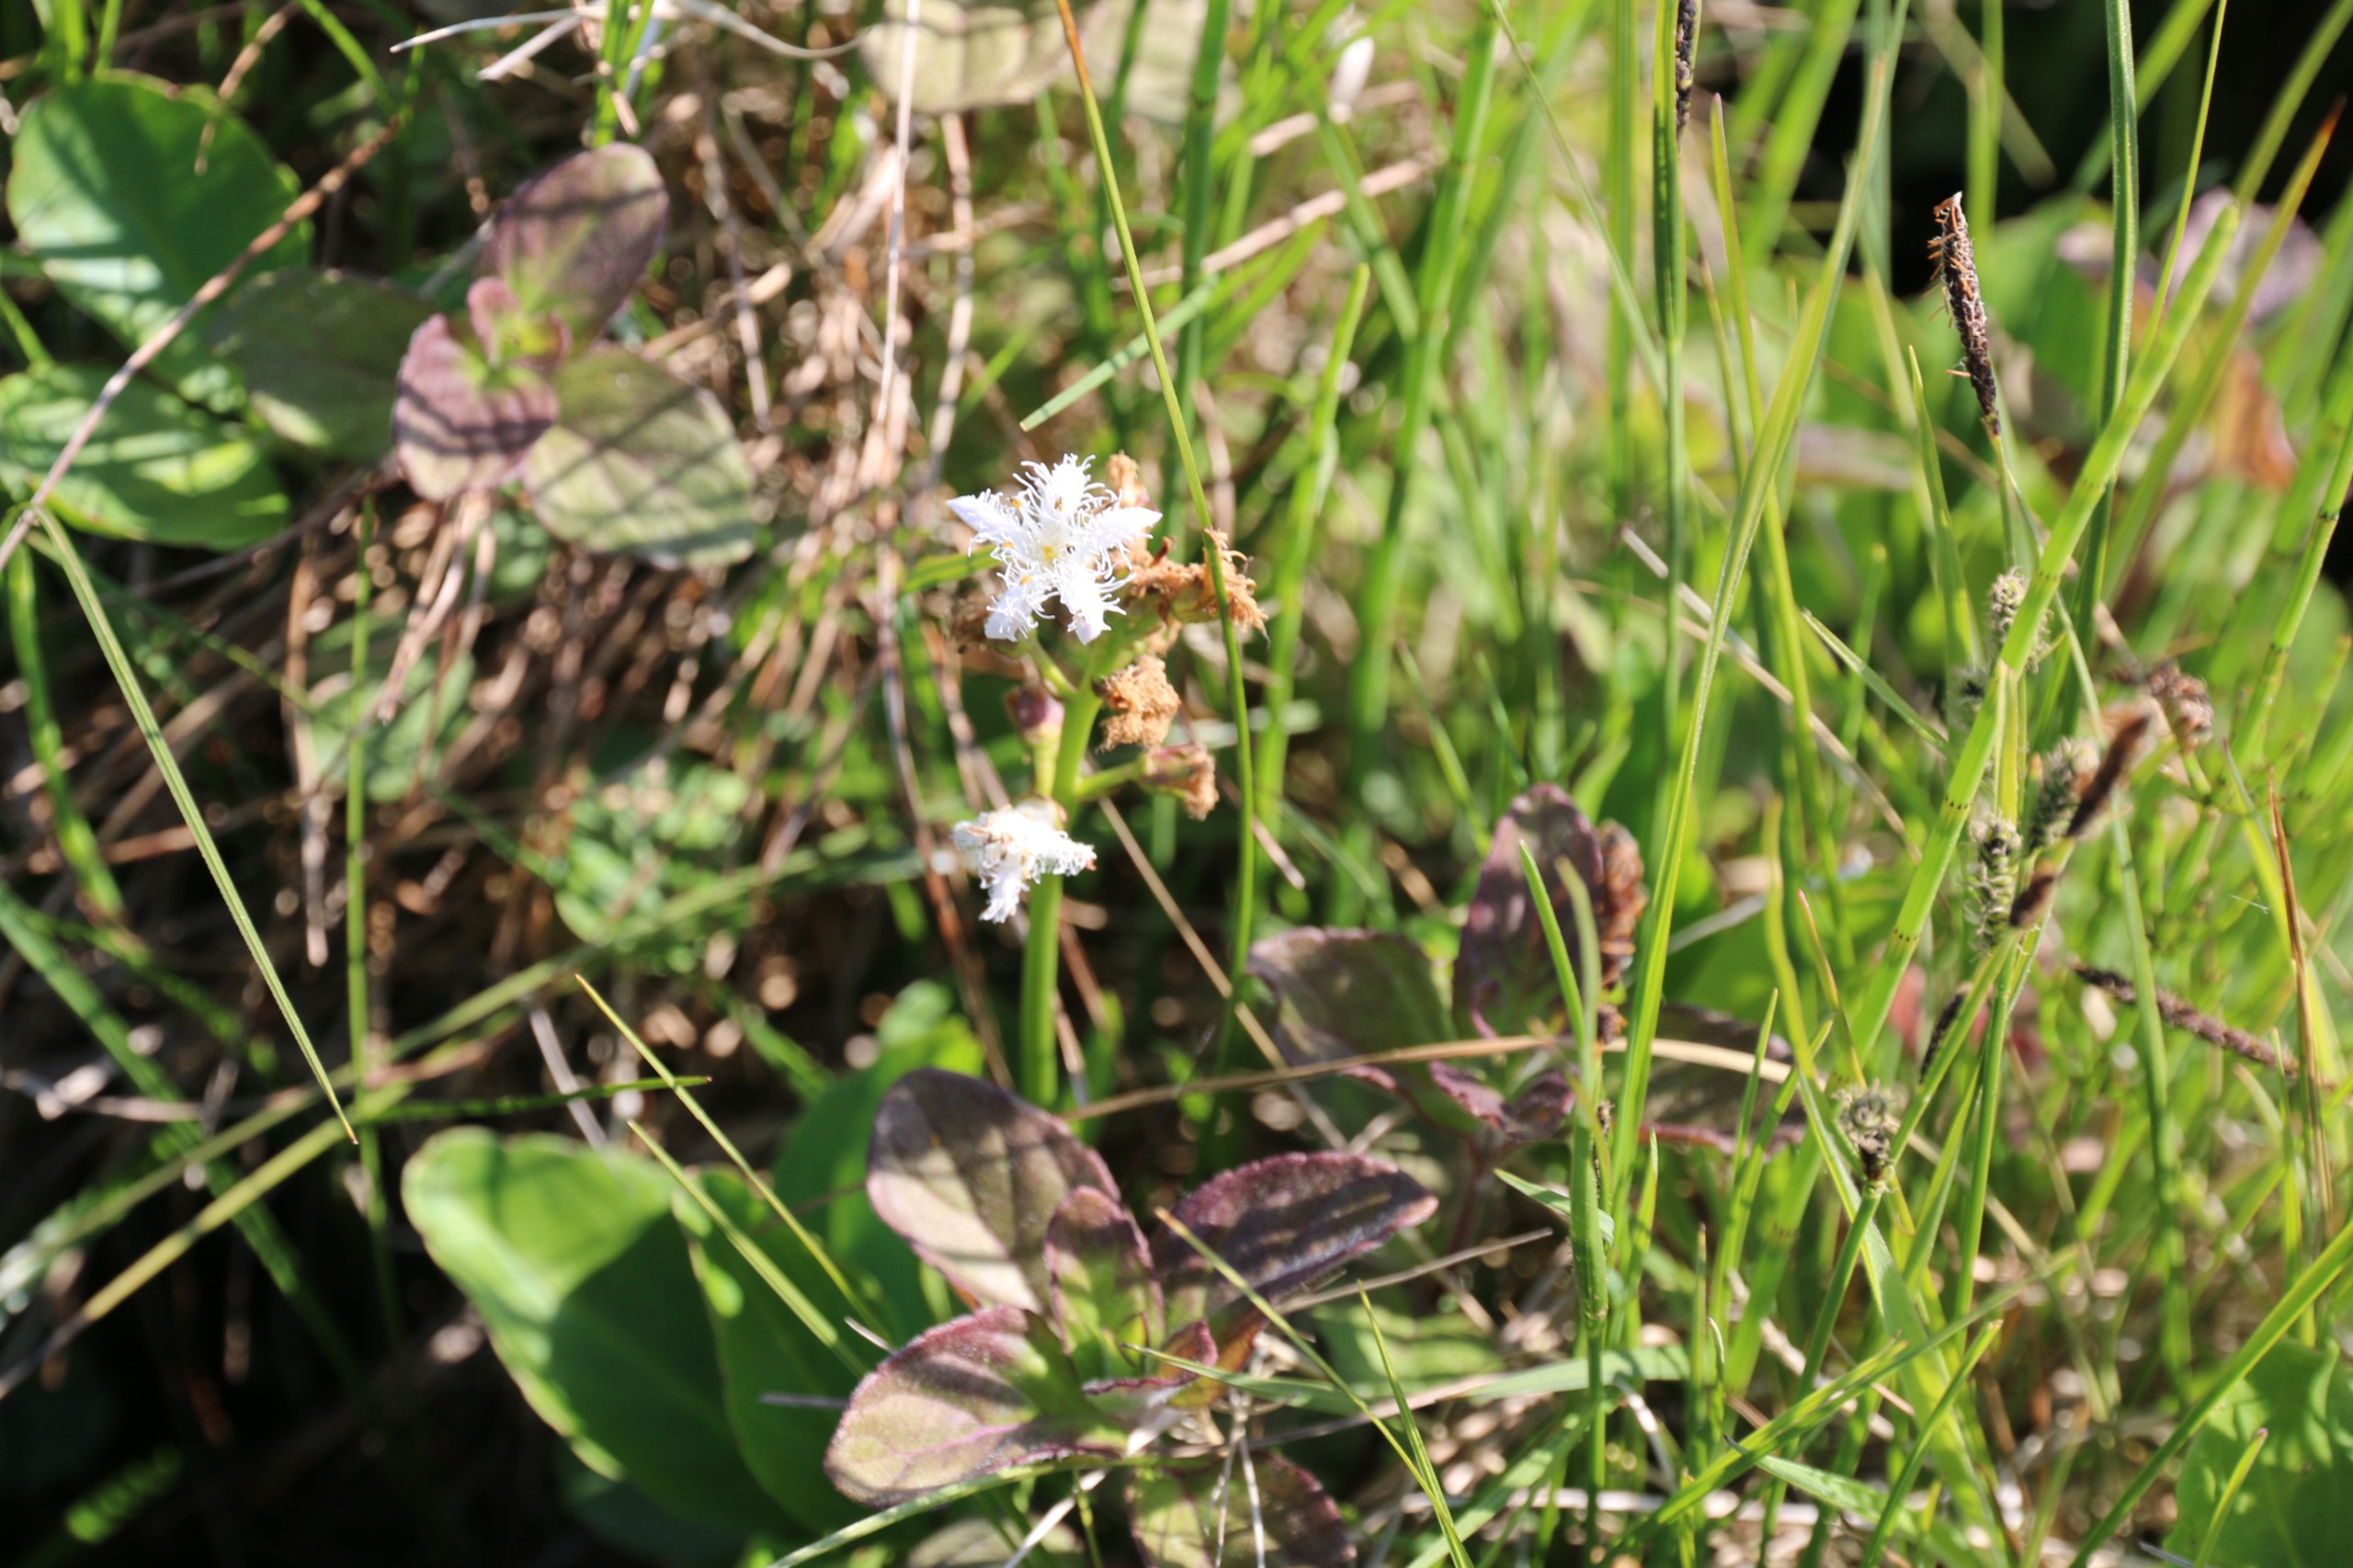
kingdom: Plantae
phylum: Tracheophyta
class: Magnoliopsida
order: Asterales
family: Menyanthaceae
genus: Menyanthes
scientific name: Menyanthes trifoliata
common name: Bukkeblad
